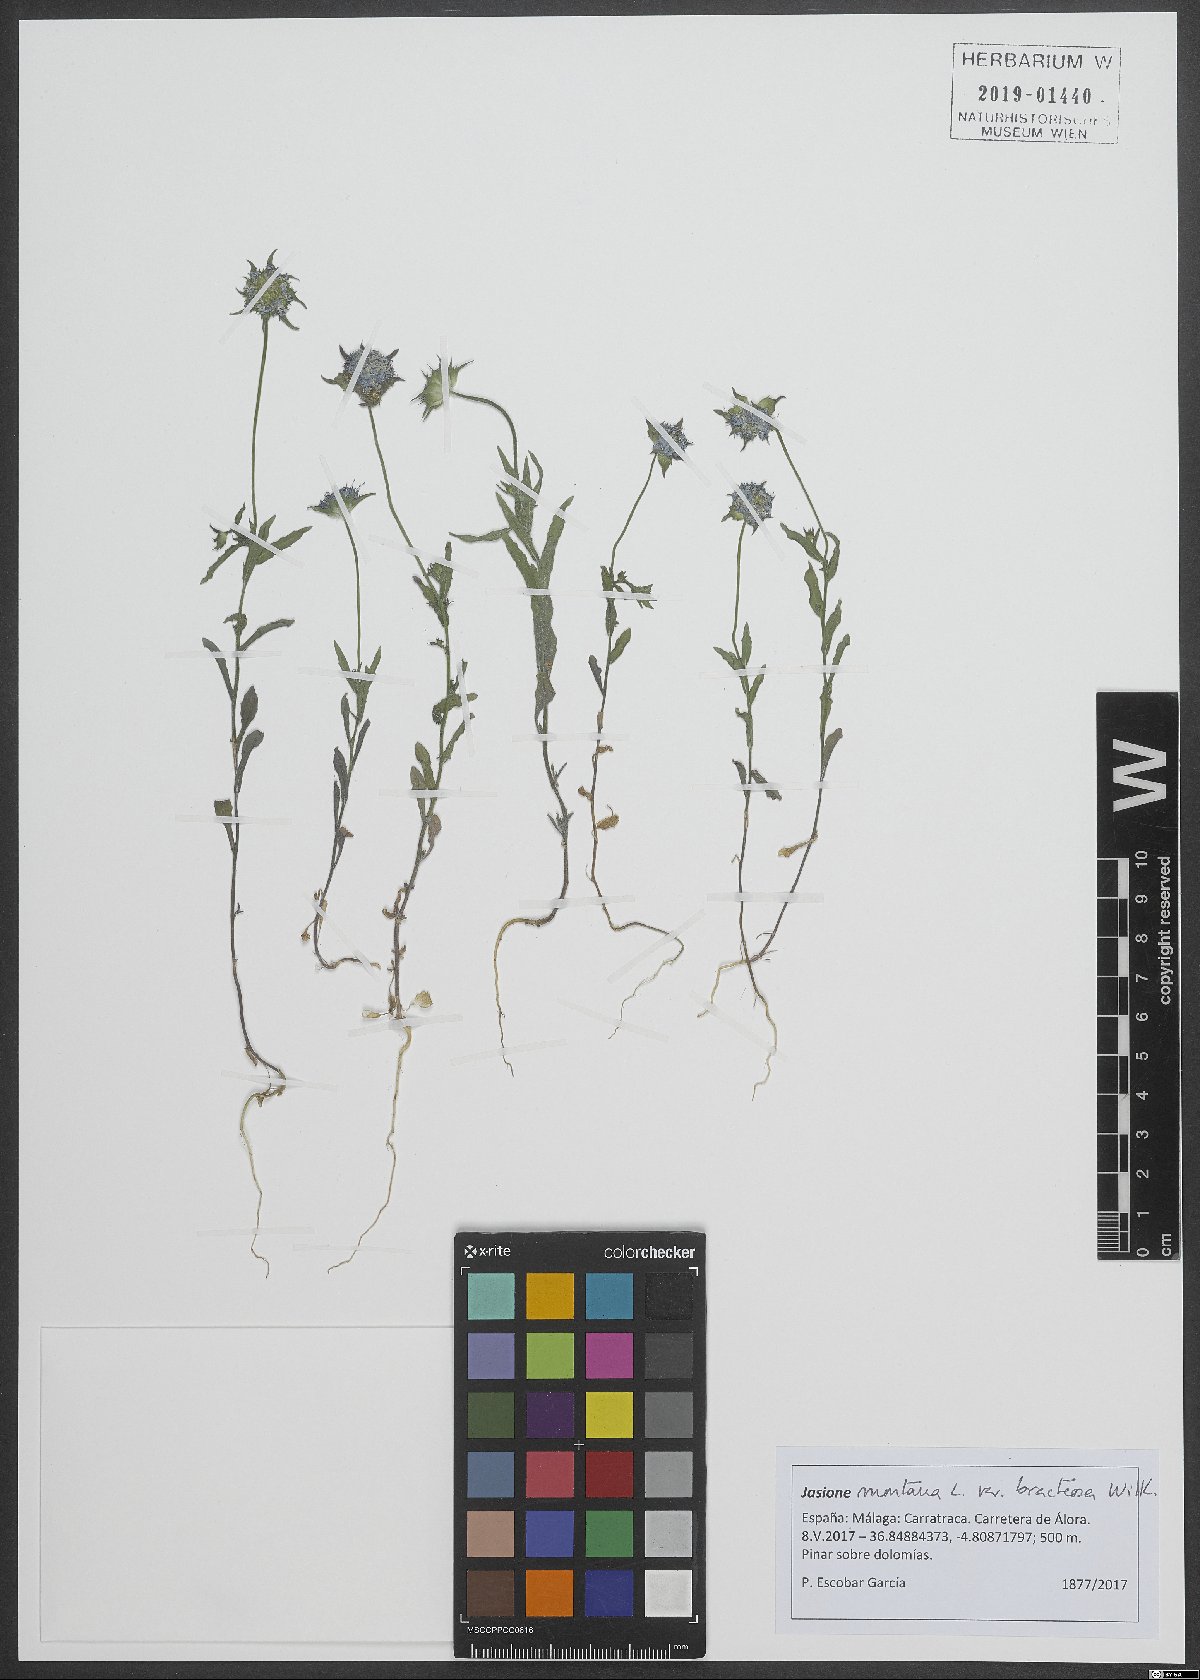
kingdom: Plantae
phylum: Tracheophyta
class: Magnoliopsida
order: Asterales
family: Campanulaceae
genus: Jasione
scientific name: Jasione montana
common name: Sheep's-bit
